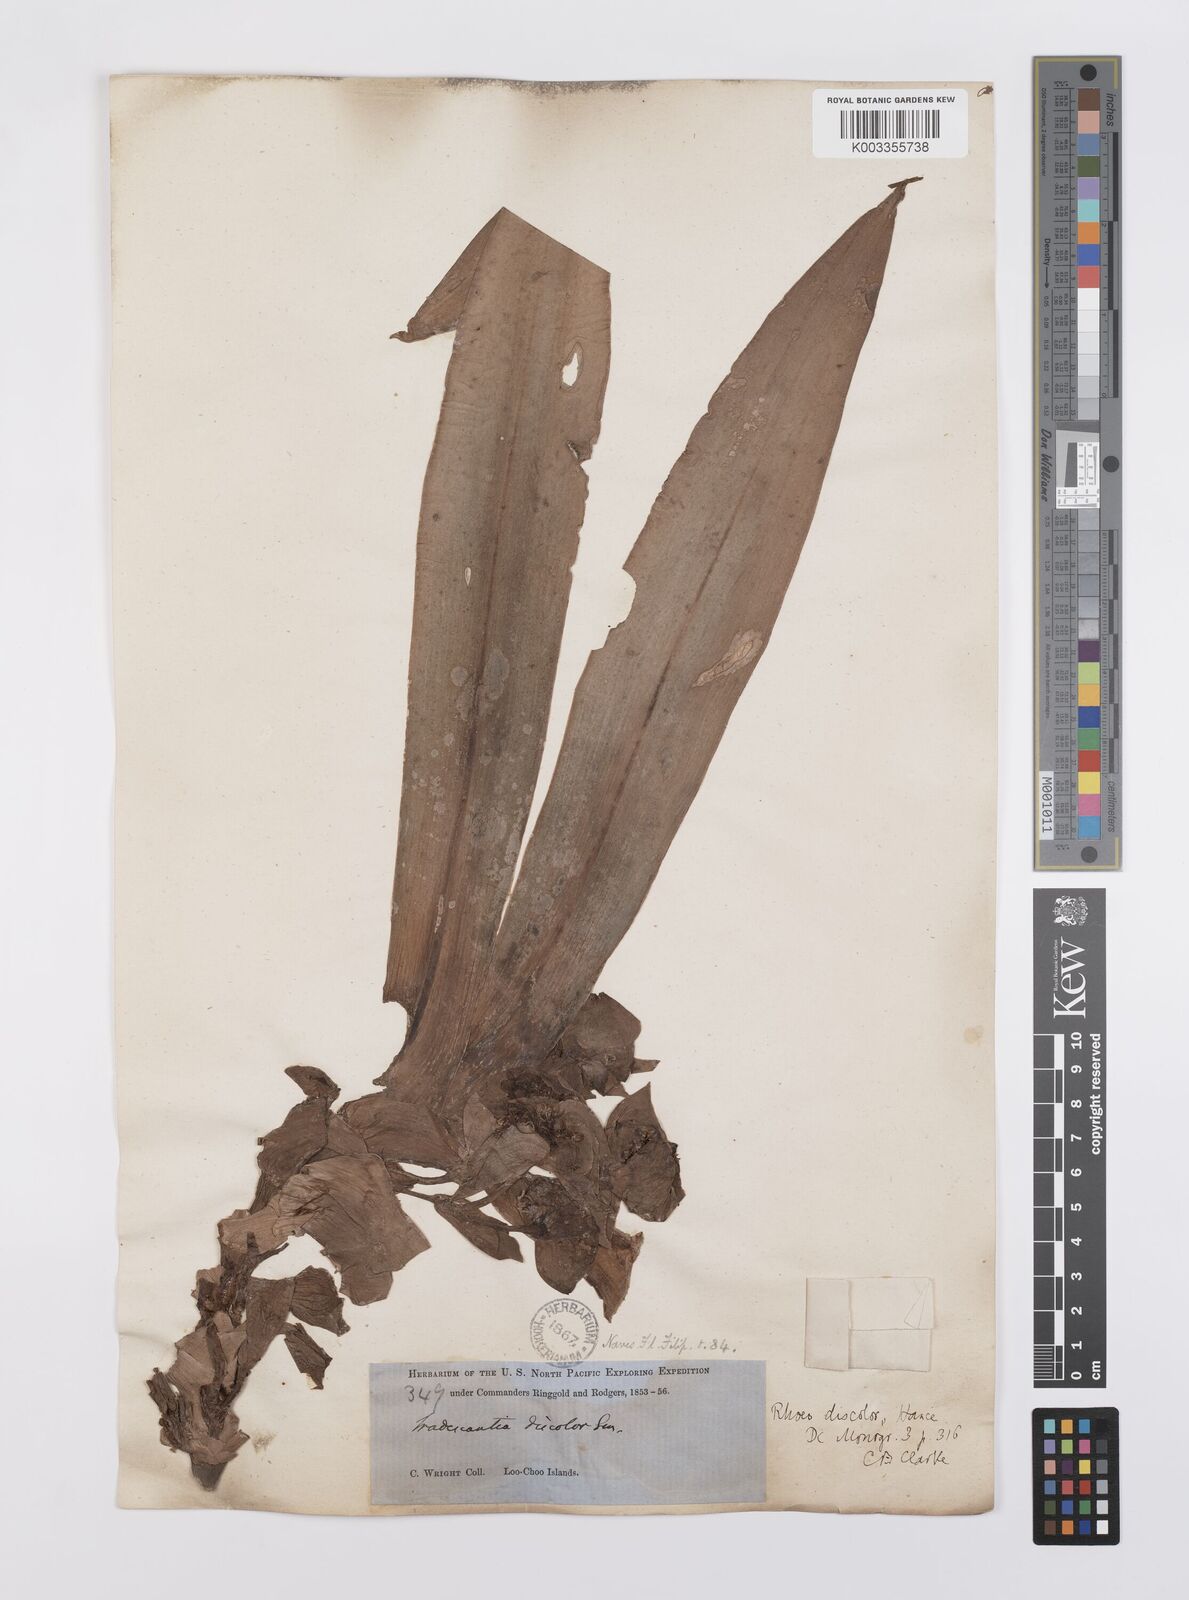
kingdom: Plantae
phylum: Tracheophyta
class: Liliopsida
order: Commelinales
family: Commelinaceae
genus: Tradescantia
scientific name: Tradescantia spathacea
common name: Boatlily
